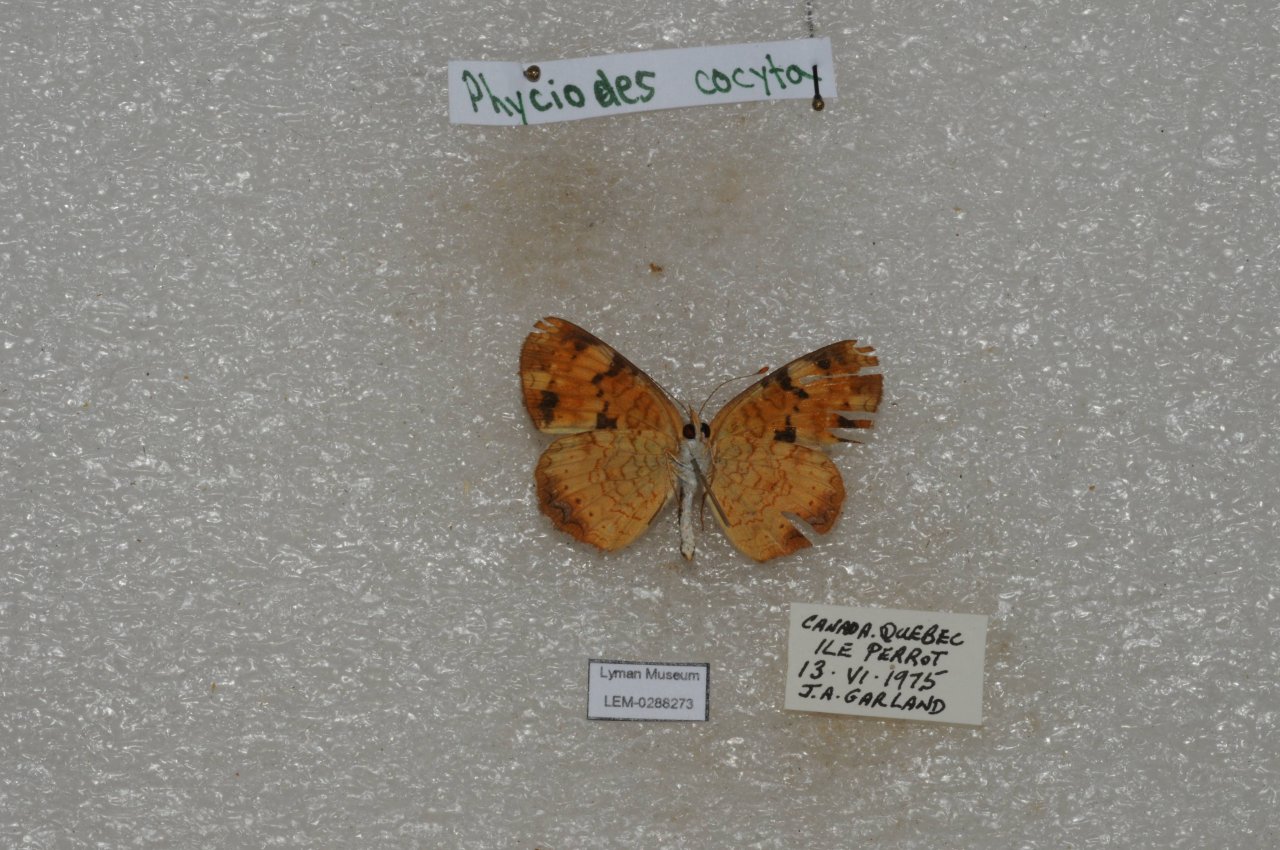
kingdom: Animalia
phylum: Arthropoda
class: Insecta
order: Lepidoptera
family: Nymphalidae
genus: Phyciodes
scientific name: Phyciodes tharos
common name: Northern Crescent
